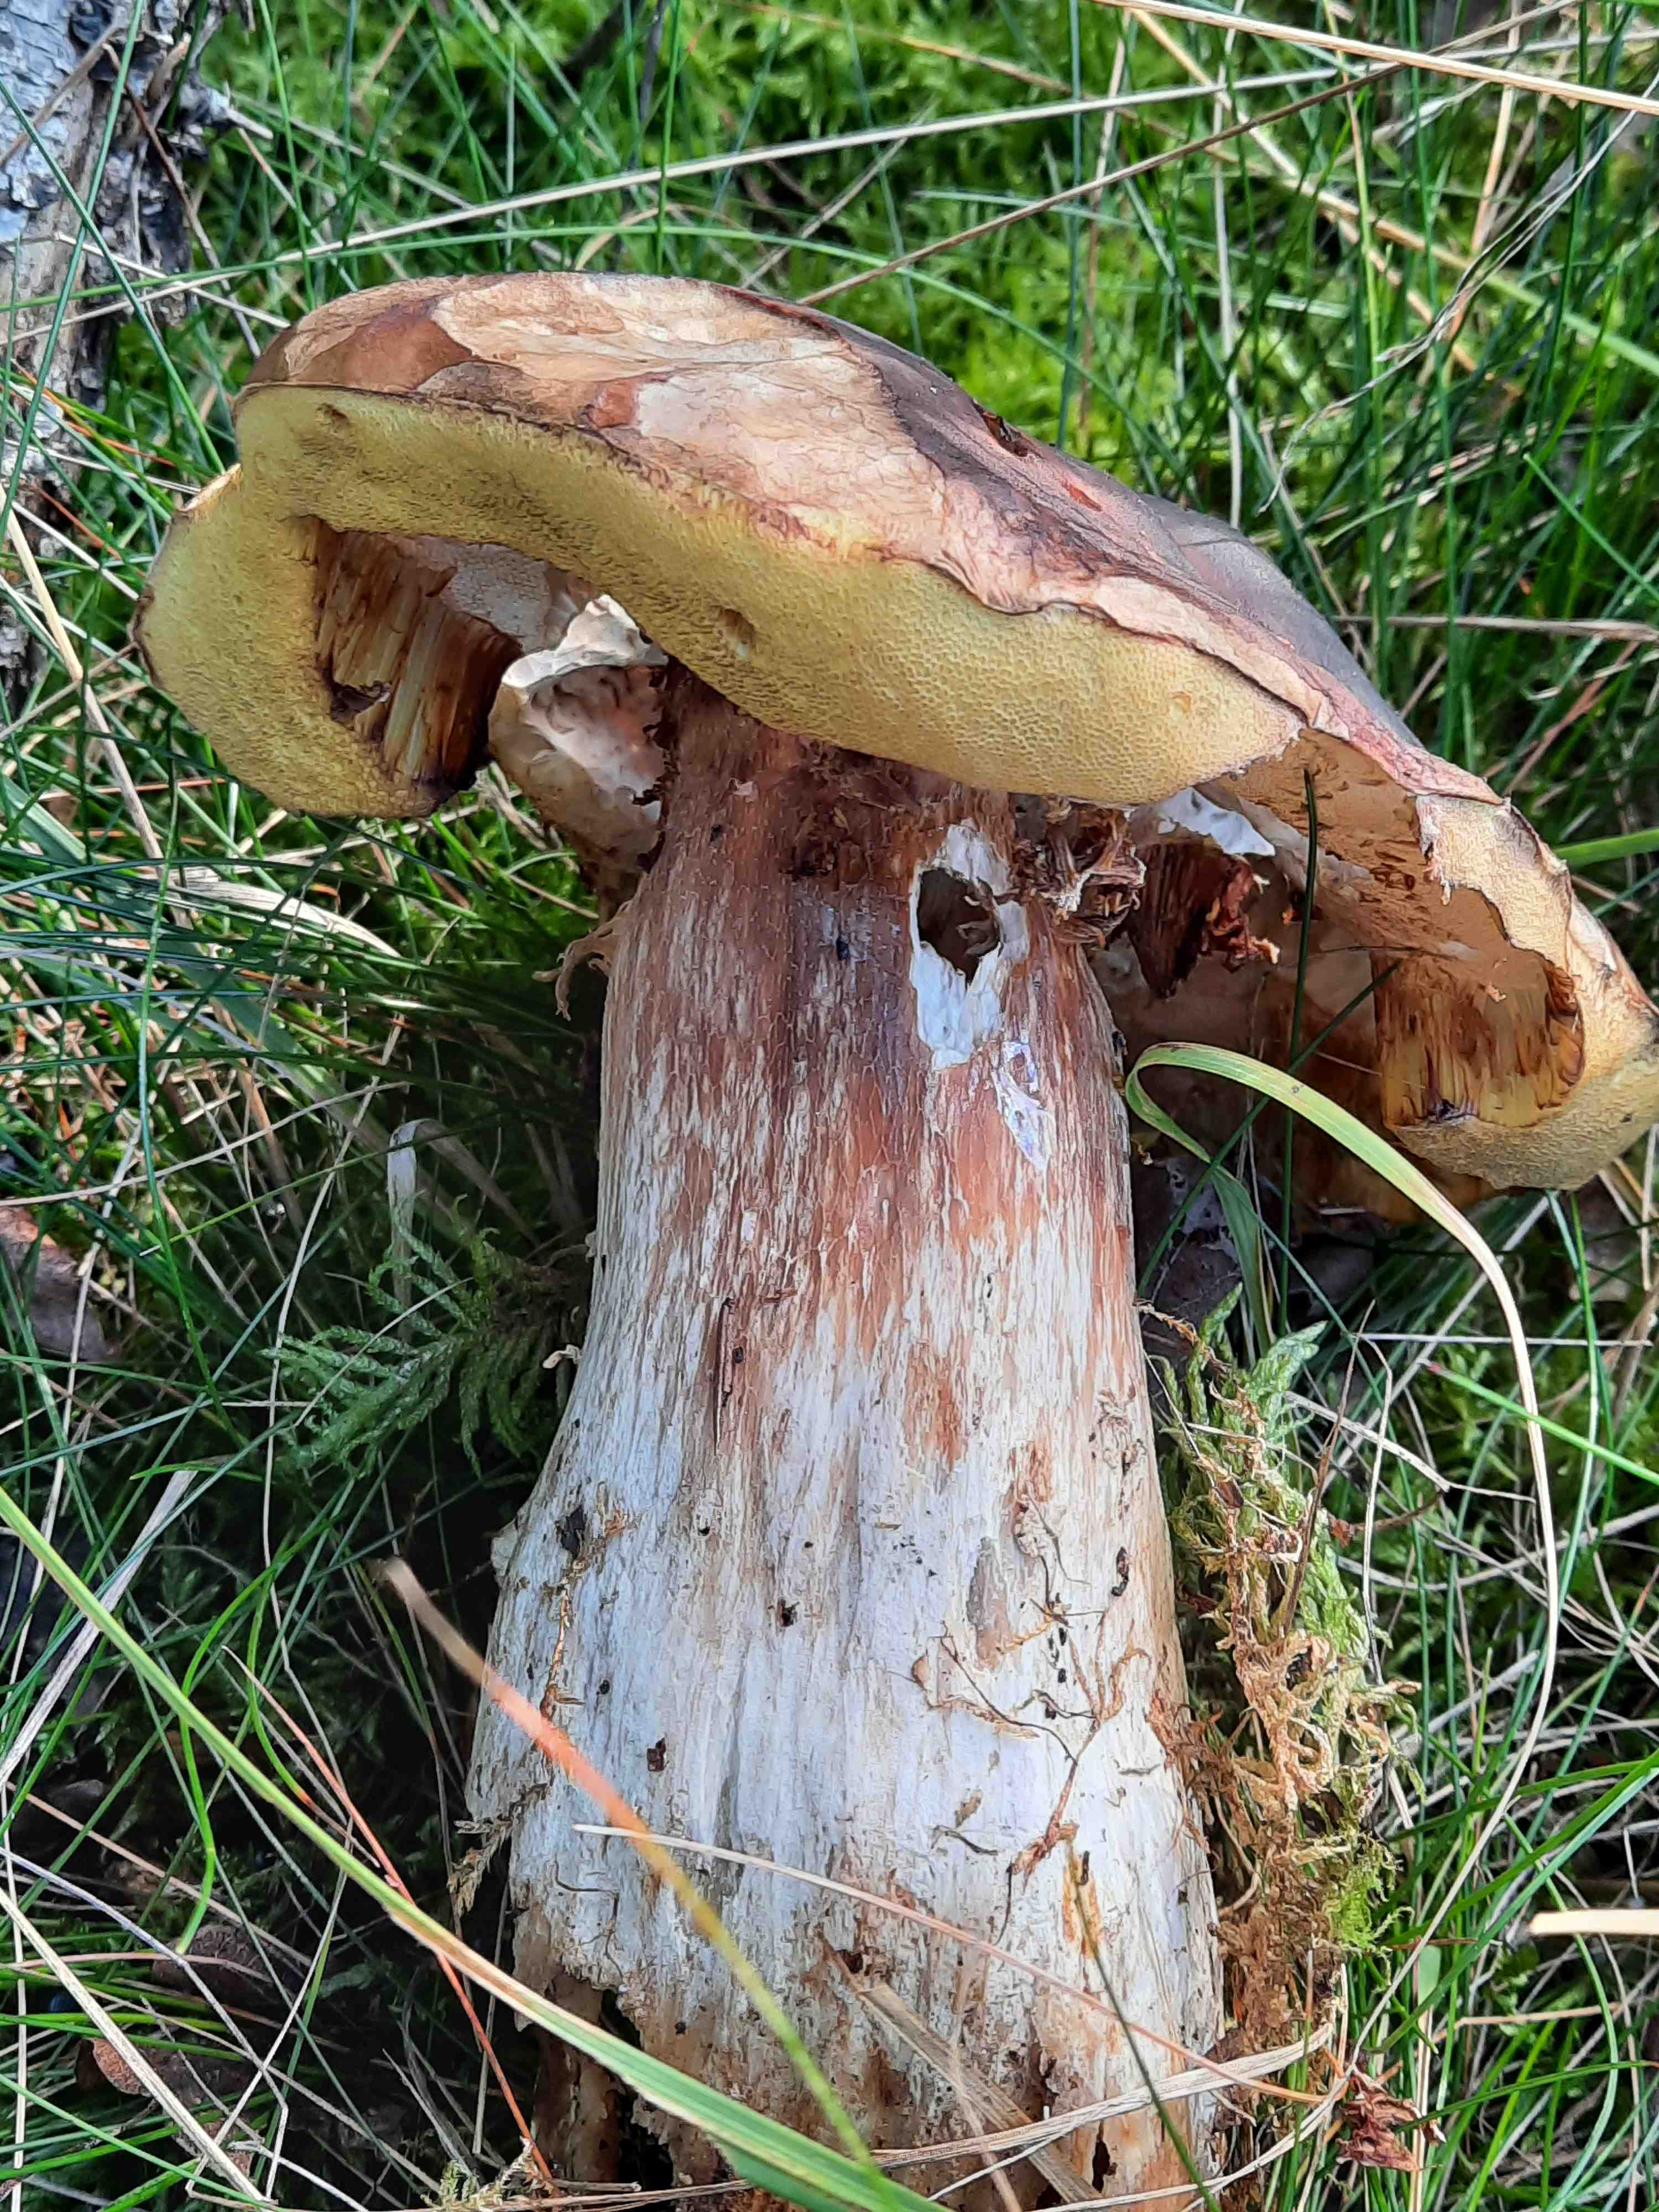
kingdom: Fungi
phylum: Basidiomycota
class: Agaricomycetes
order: Boletales
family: Boletaceae
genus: Boletus
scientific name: Boletus edulis
